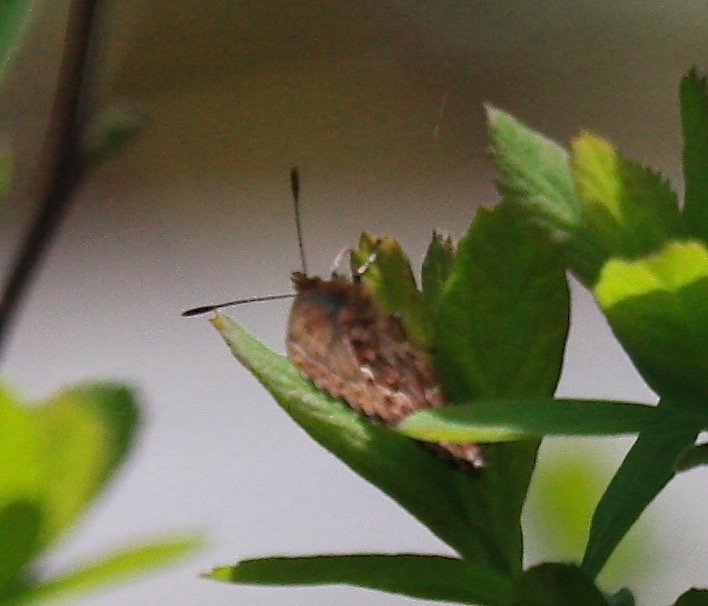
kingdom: Animalia
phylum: Arthropoda
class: Insecta
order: Lepidoptera
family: Lycaenidae
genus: Incisalia
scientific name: Incisalia eryphon
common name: Western Pine Elfin
